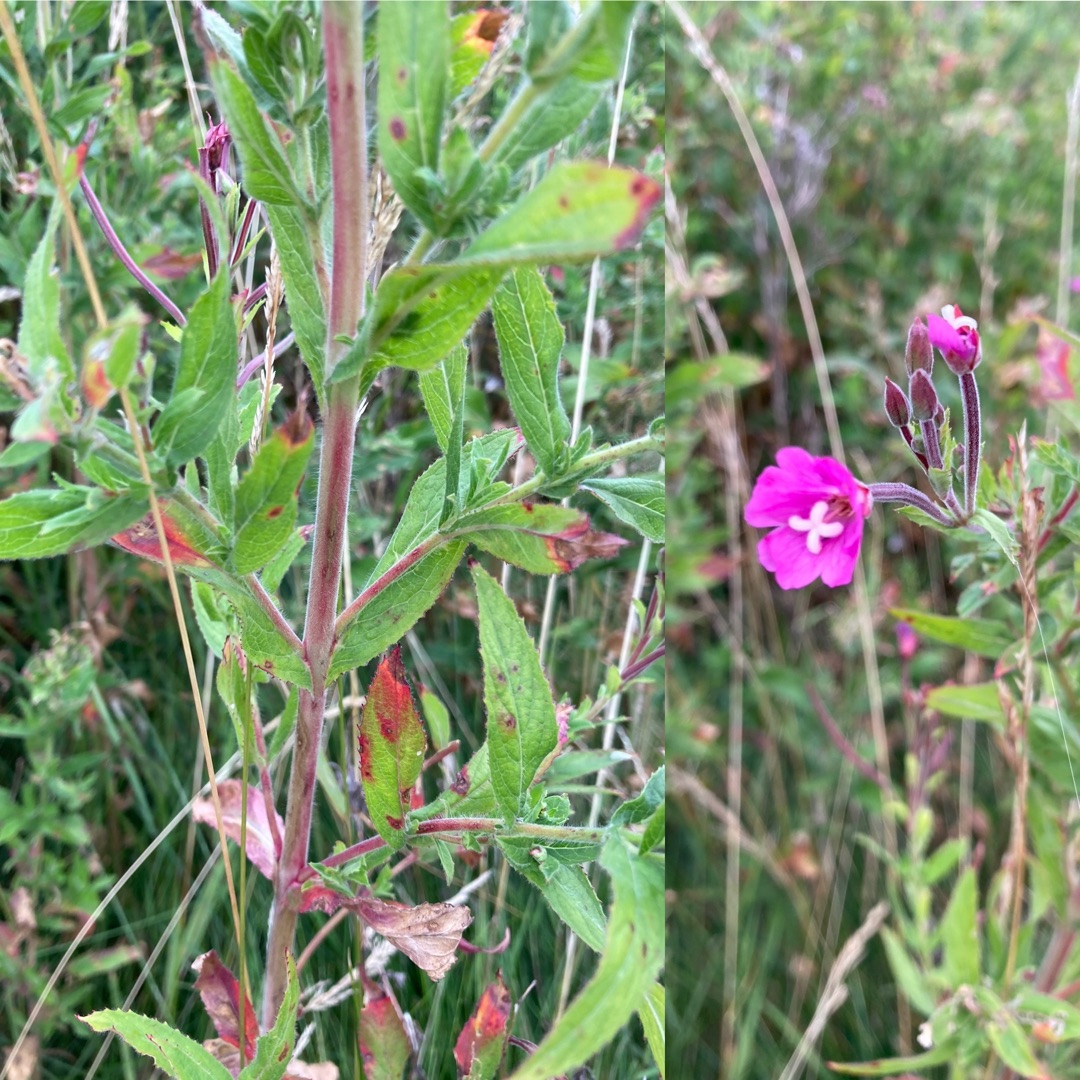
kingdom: Plantae
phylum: Tracheophyta
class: Magnoliopsida
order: Myrtales
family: Onagraceae
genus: Epilobium
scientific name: Epilobium hirsutum
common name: Lådden dueurt
